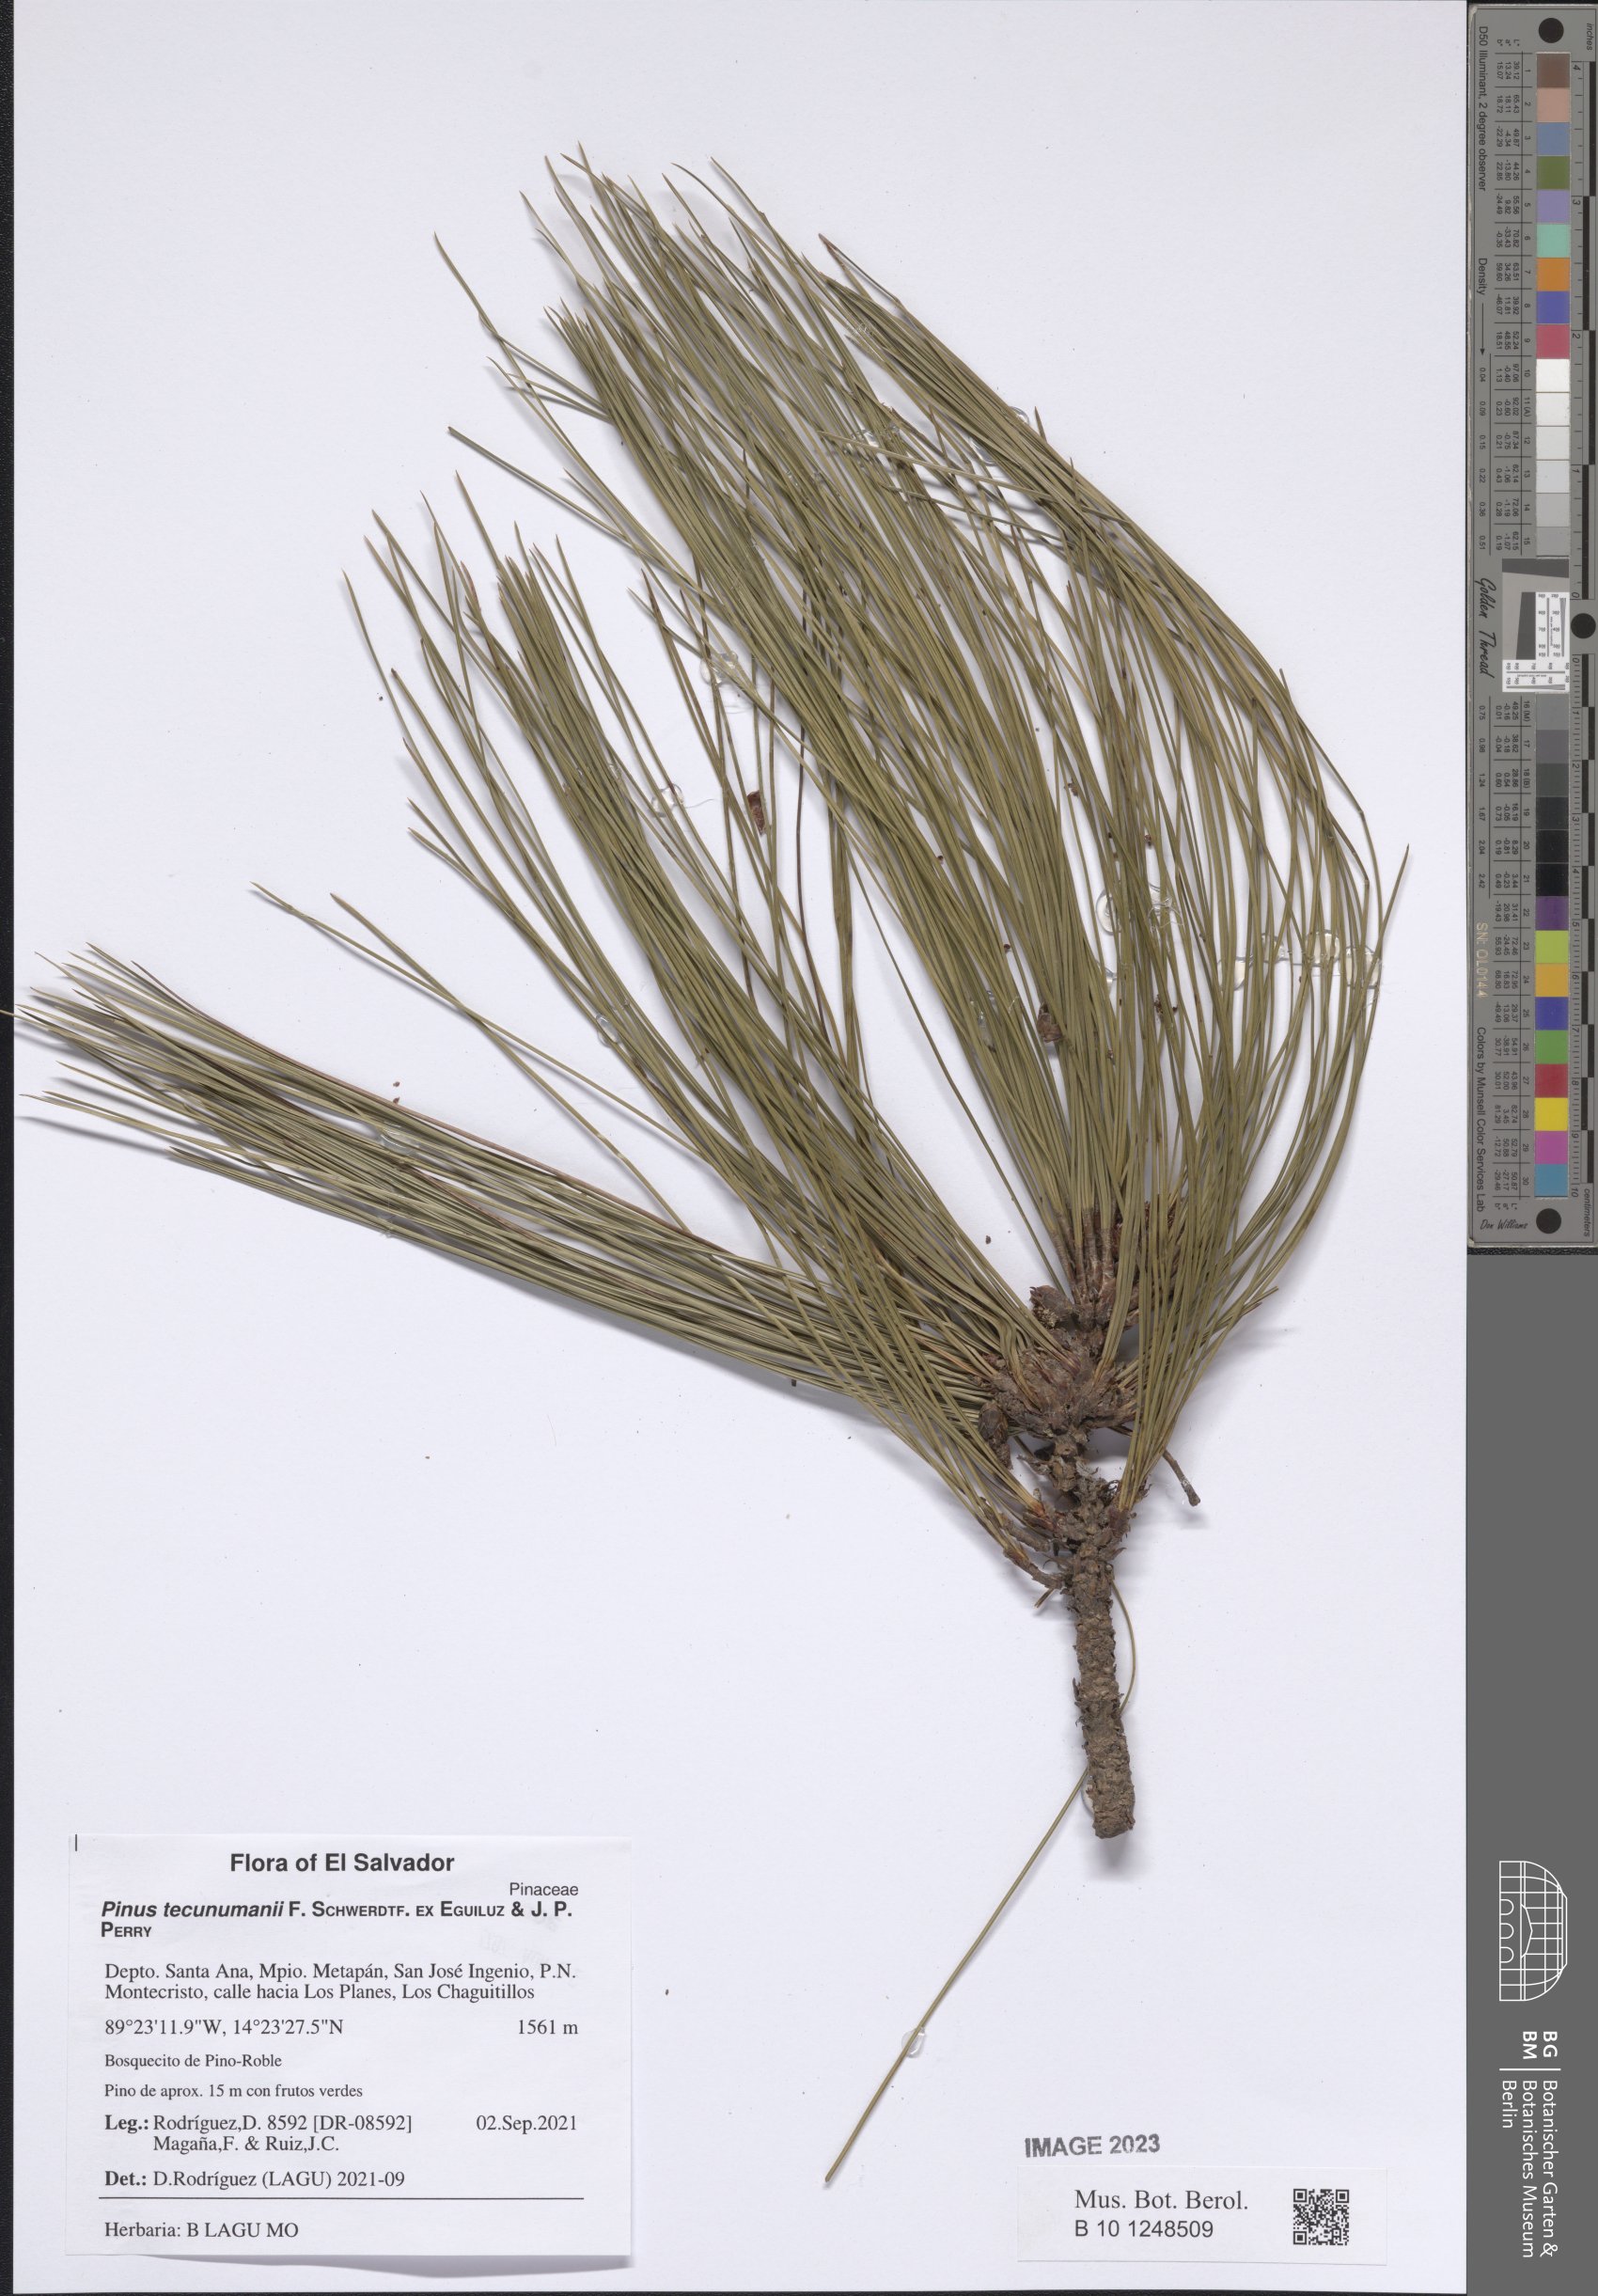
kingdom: Plantae
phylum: Tracheophyta
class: Pinopsida
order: Pinales
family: Pinaceae
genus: Pinus
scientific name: Pinus tecunumanii
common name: Schwerdtfeger's pine
